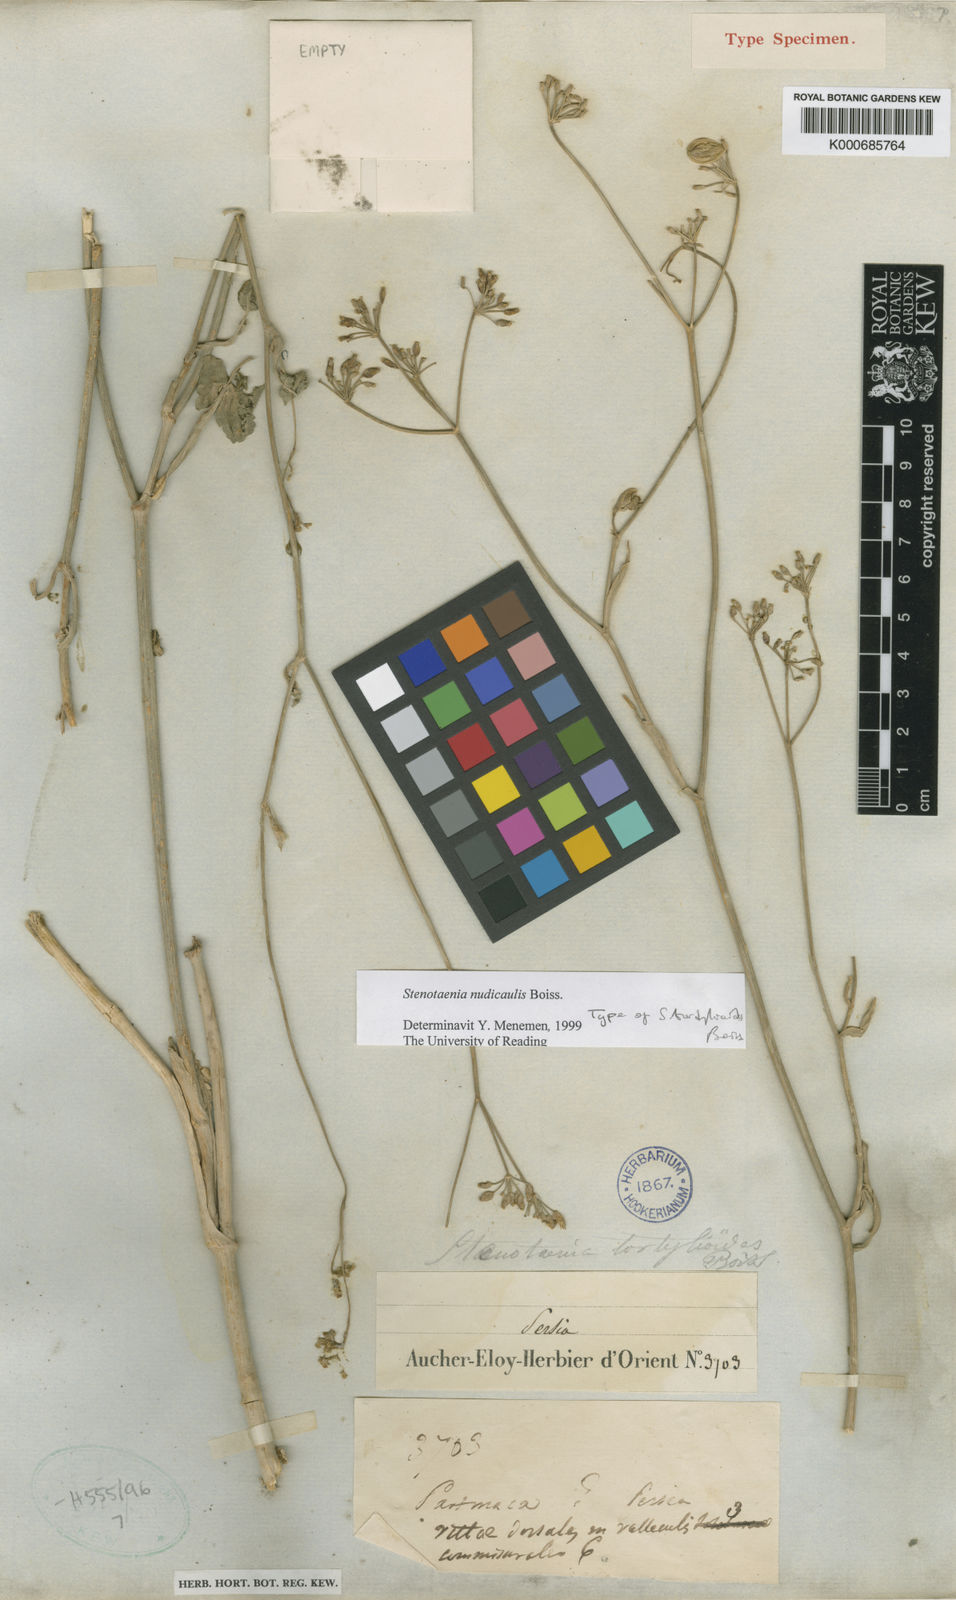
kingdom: Plantae
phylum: Tracheophyta
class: Magnoliopsida
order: Apiales
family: Apiaceae
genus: Stenotaenia
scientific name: Stenotaenia tordylioides
